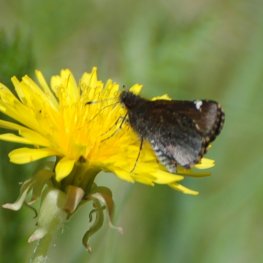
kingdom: Animalia
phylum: Arthropoda
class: Insecta
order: Lepidoptera
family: Hesperiidae
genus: Mastor
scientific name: Mastor vialis
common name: Common Roadside-Skipper
